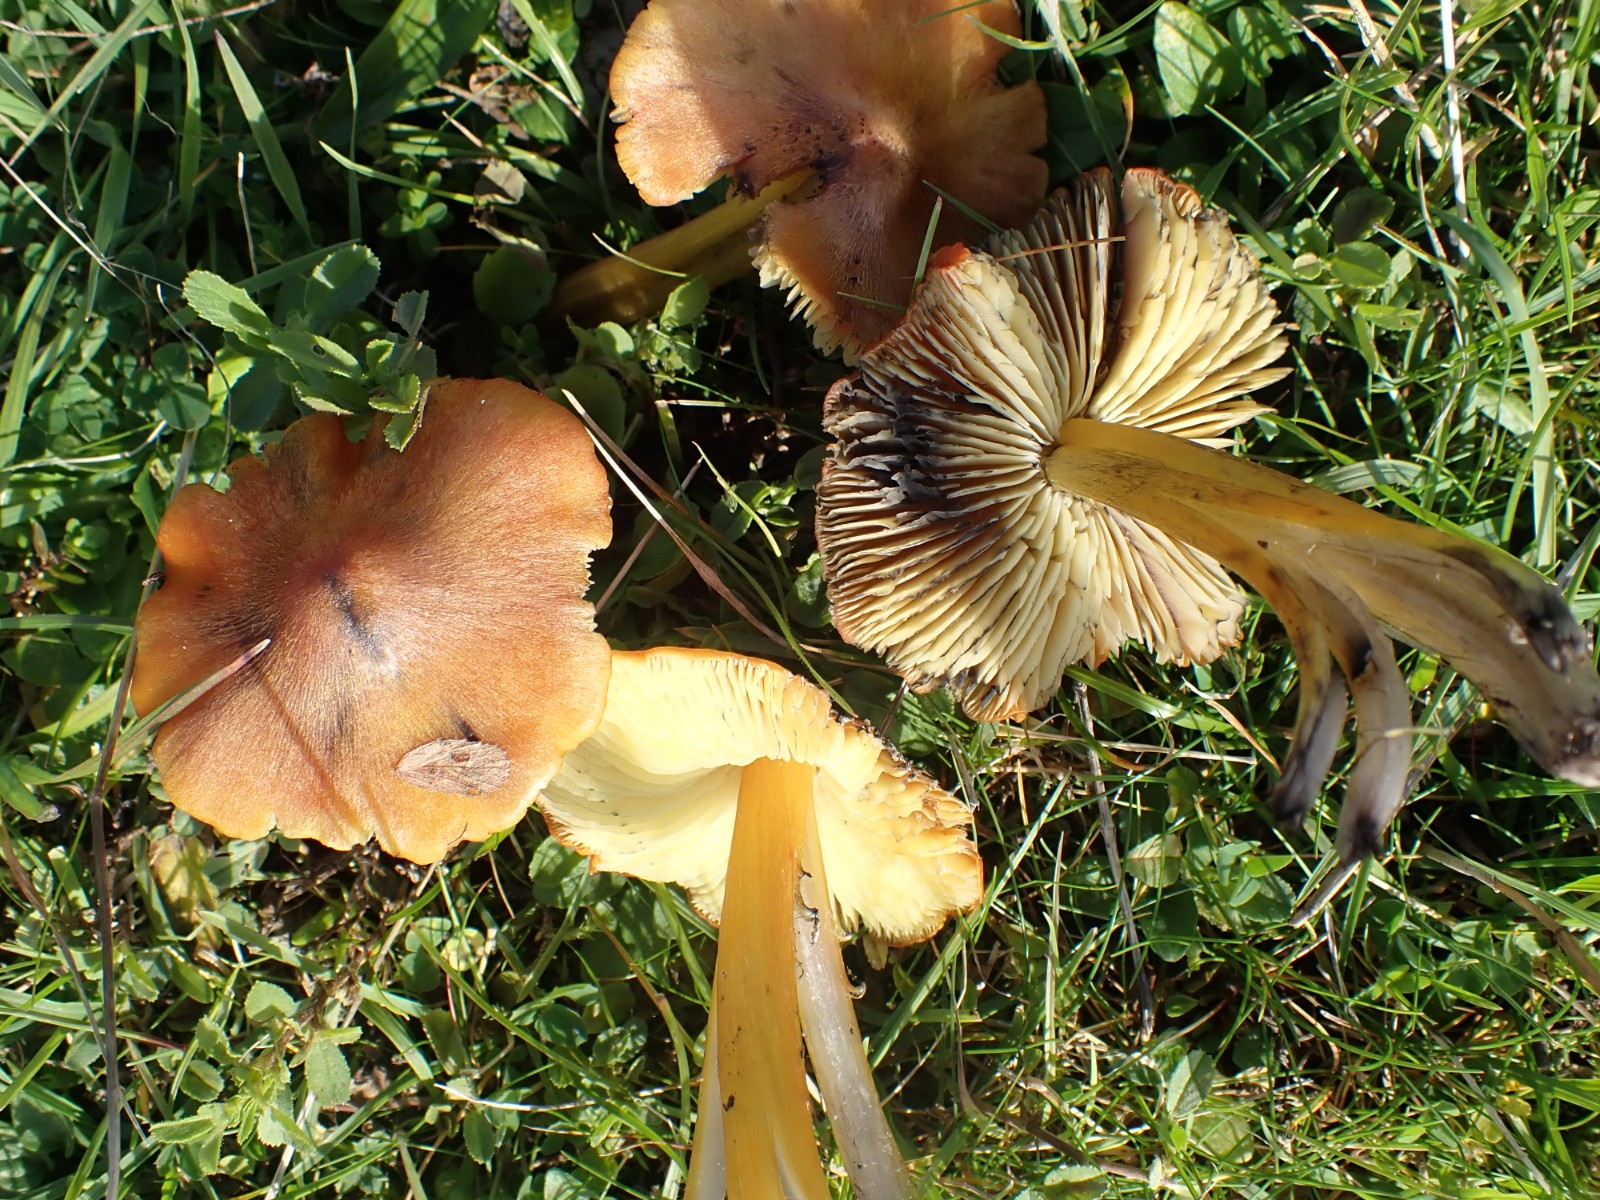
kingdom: Fungi
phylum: Basidiomycota
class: Agaricomycetes
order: Agaricales
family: Hygrophoraceae
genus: Hygrocybe
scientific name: Hygrocybe conica
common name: kegle-vokshat
